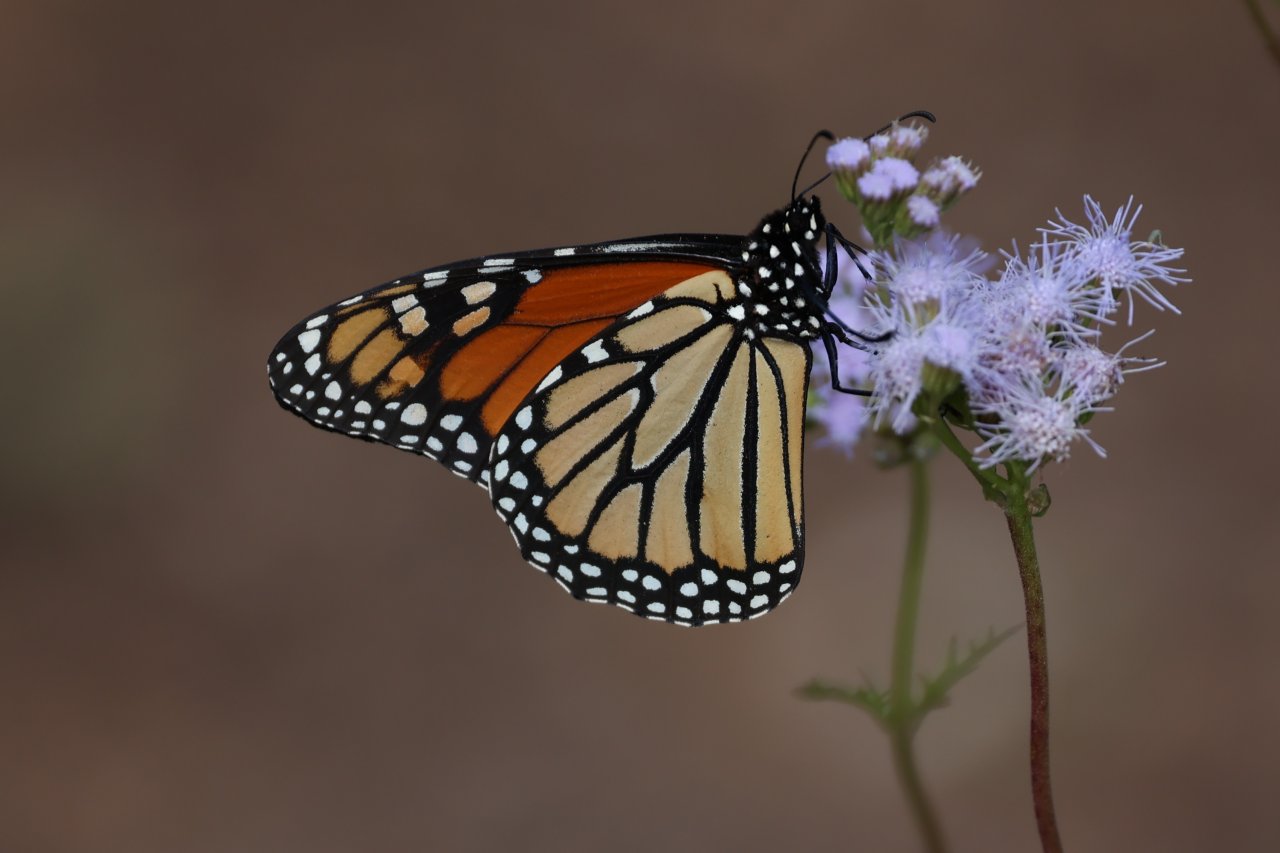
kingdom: Animalia
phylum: Arthropoda
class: Insecta
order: Lepidoptera
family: Nymphalidae
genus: Danaus
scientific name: Danaus plexippus
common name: Monarch
